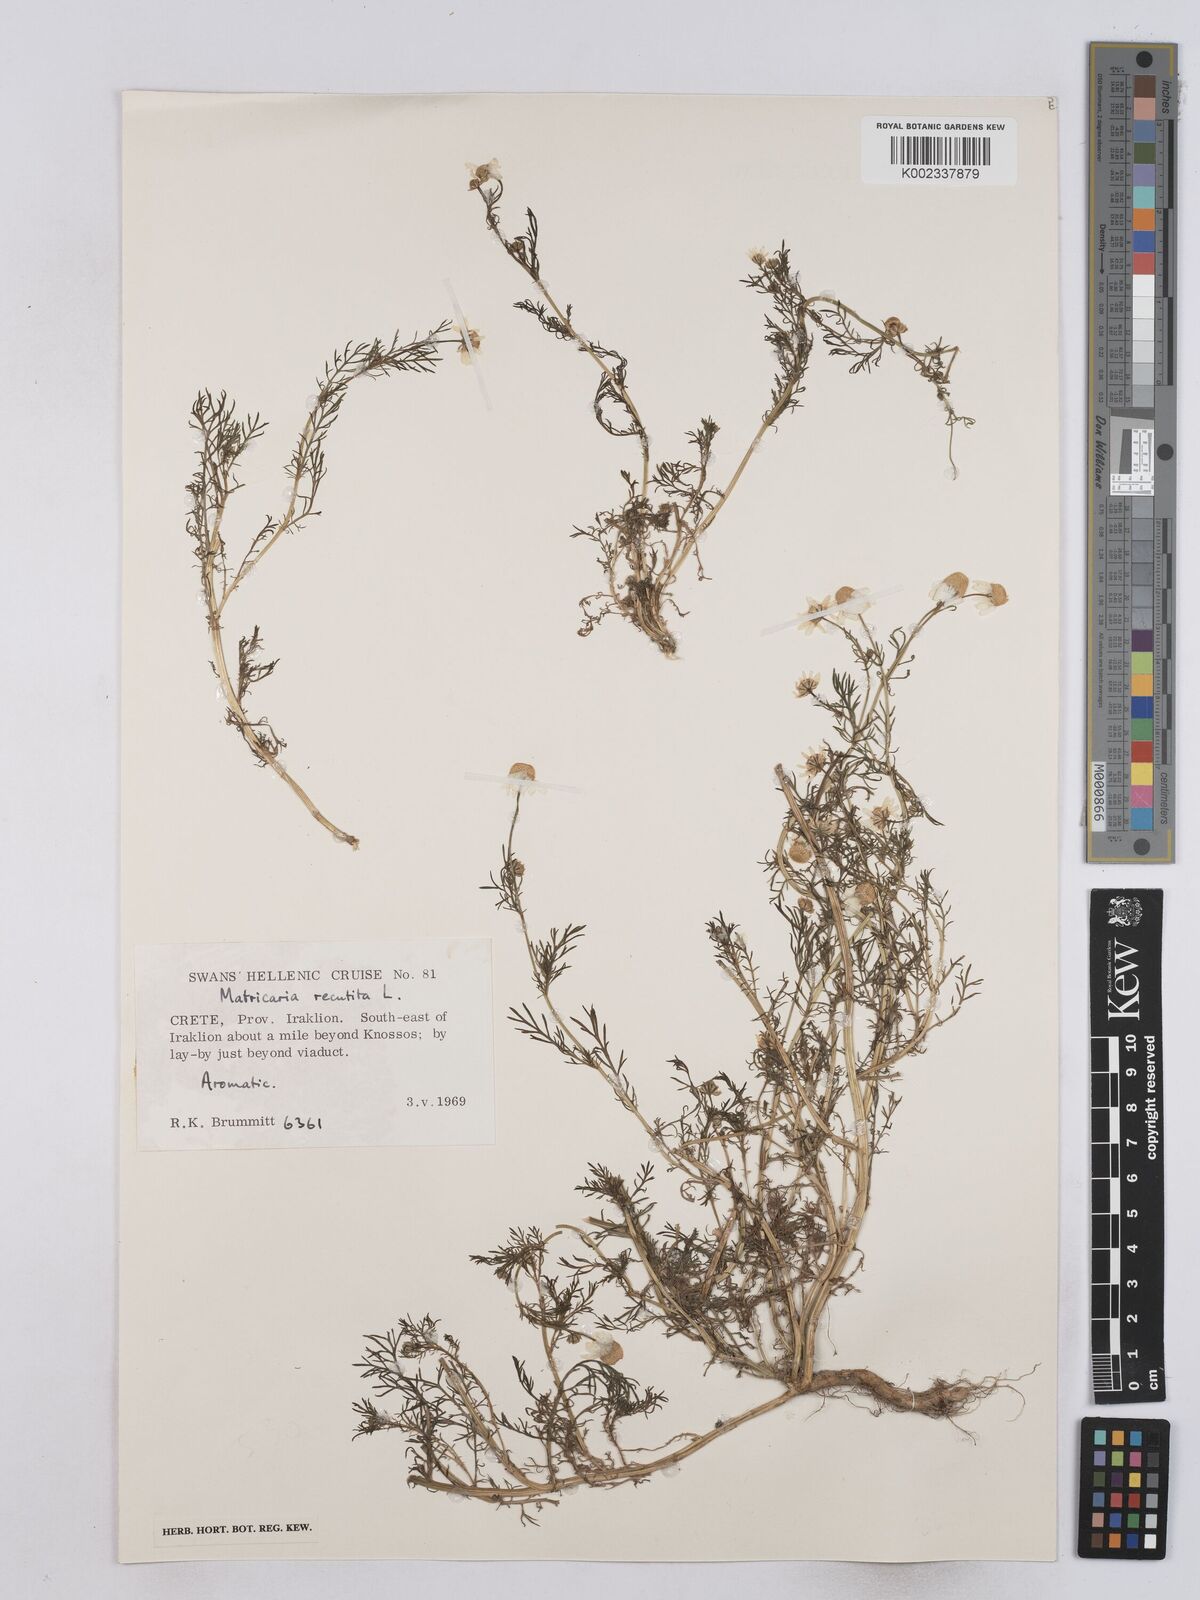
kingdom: Plantae
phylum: Tracheophyta
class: Magnoliopsida
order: Asterales
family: Asteraceae
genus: Matricaria
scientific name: Matricaria chamomilla
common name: Scented mayweed
